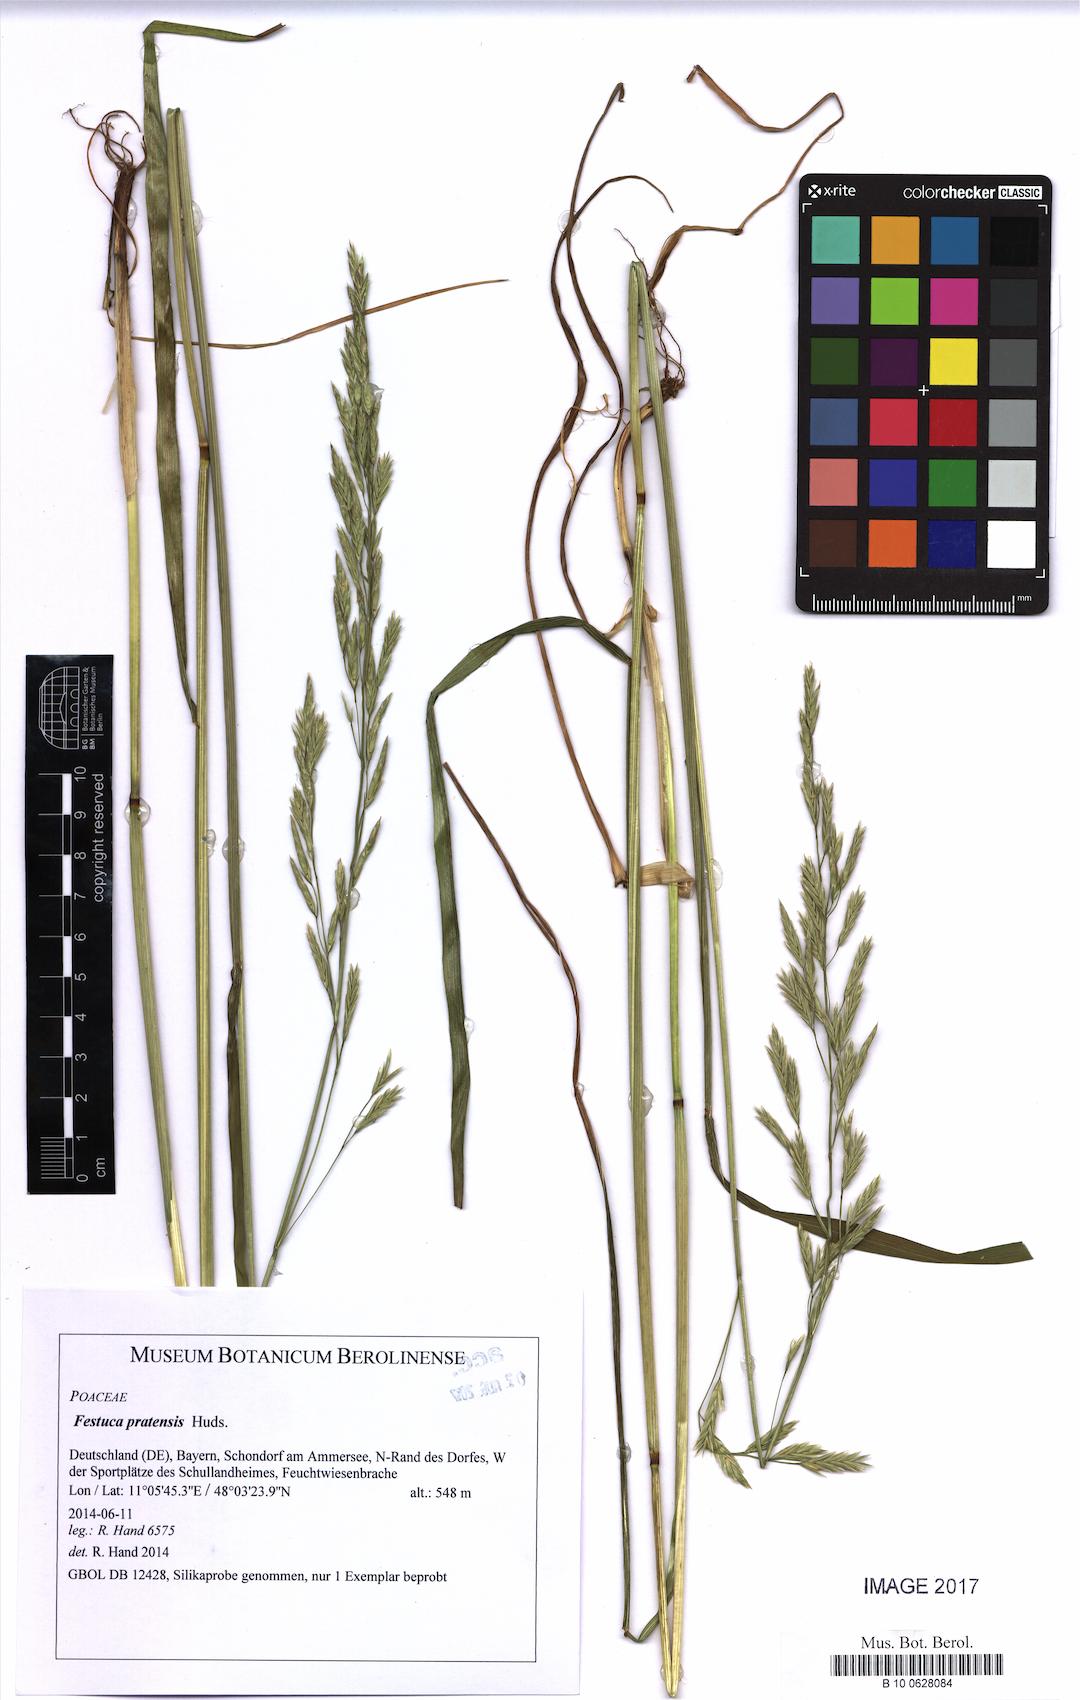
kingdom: Plantae
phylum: Tracheophyta
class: Liliopsida
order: Poales
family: Poaceae
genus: Lolium
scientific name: Lolium pratense
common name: Dover grass
